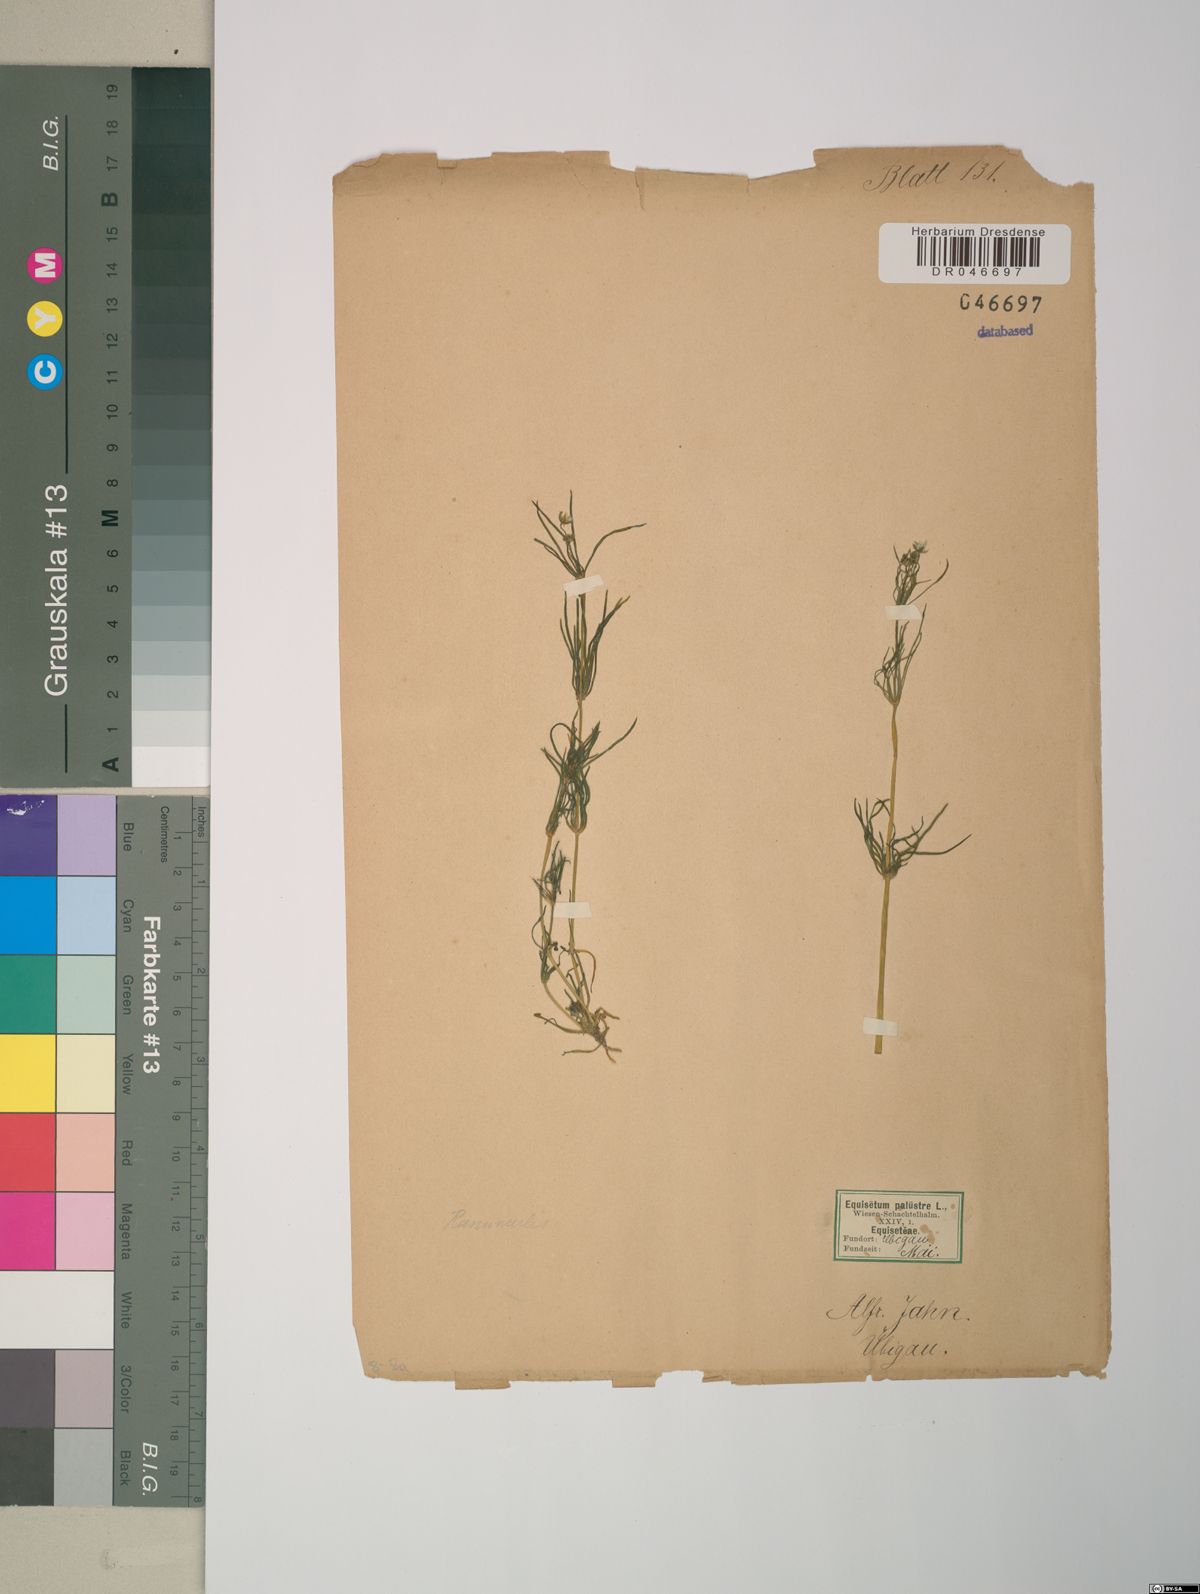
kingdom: Plantae
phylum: Tracheophyta
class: Magnoliopsida
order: Ranunculales
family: Ranunculaceae
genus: Ranunculus
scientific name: Ranunculus
